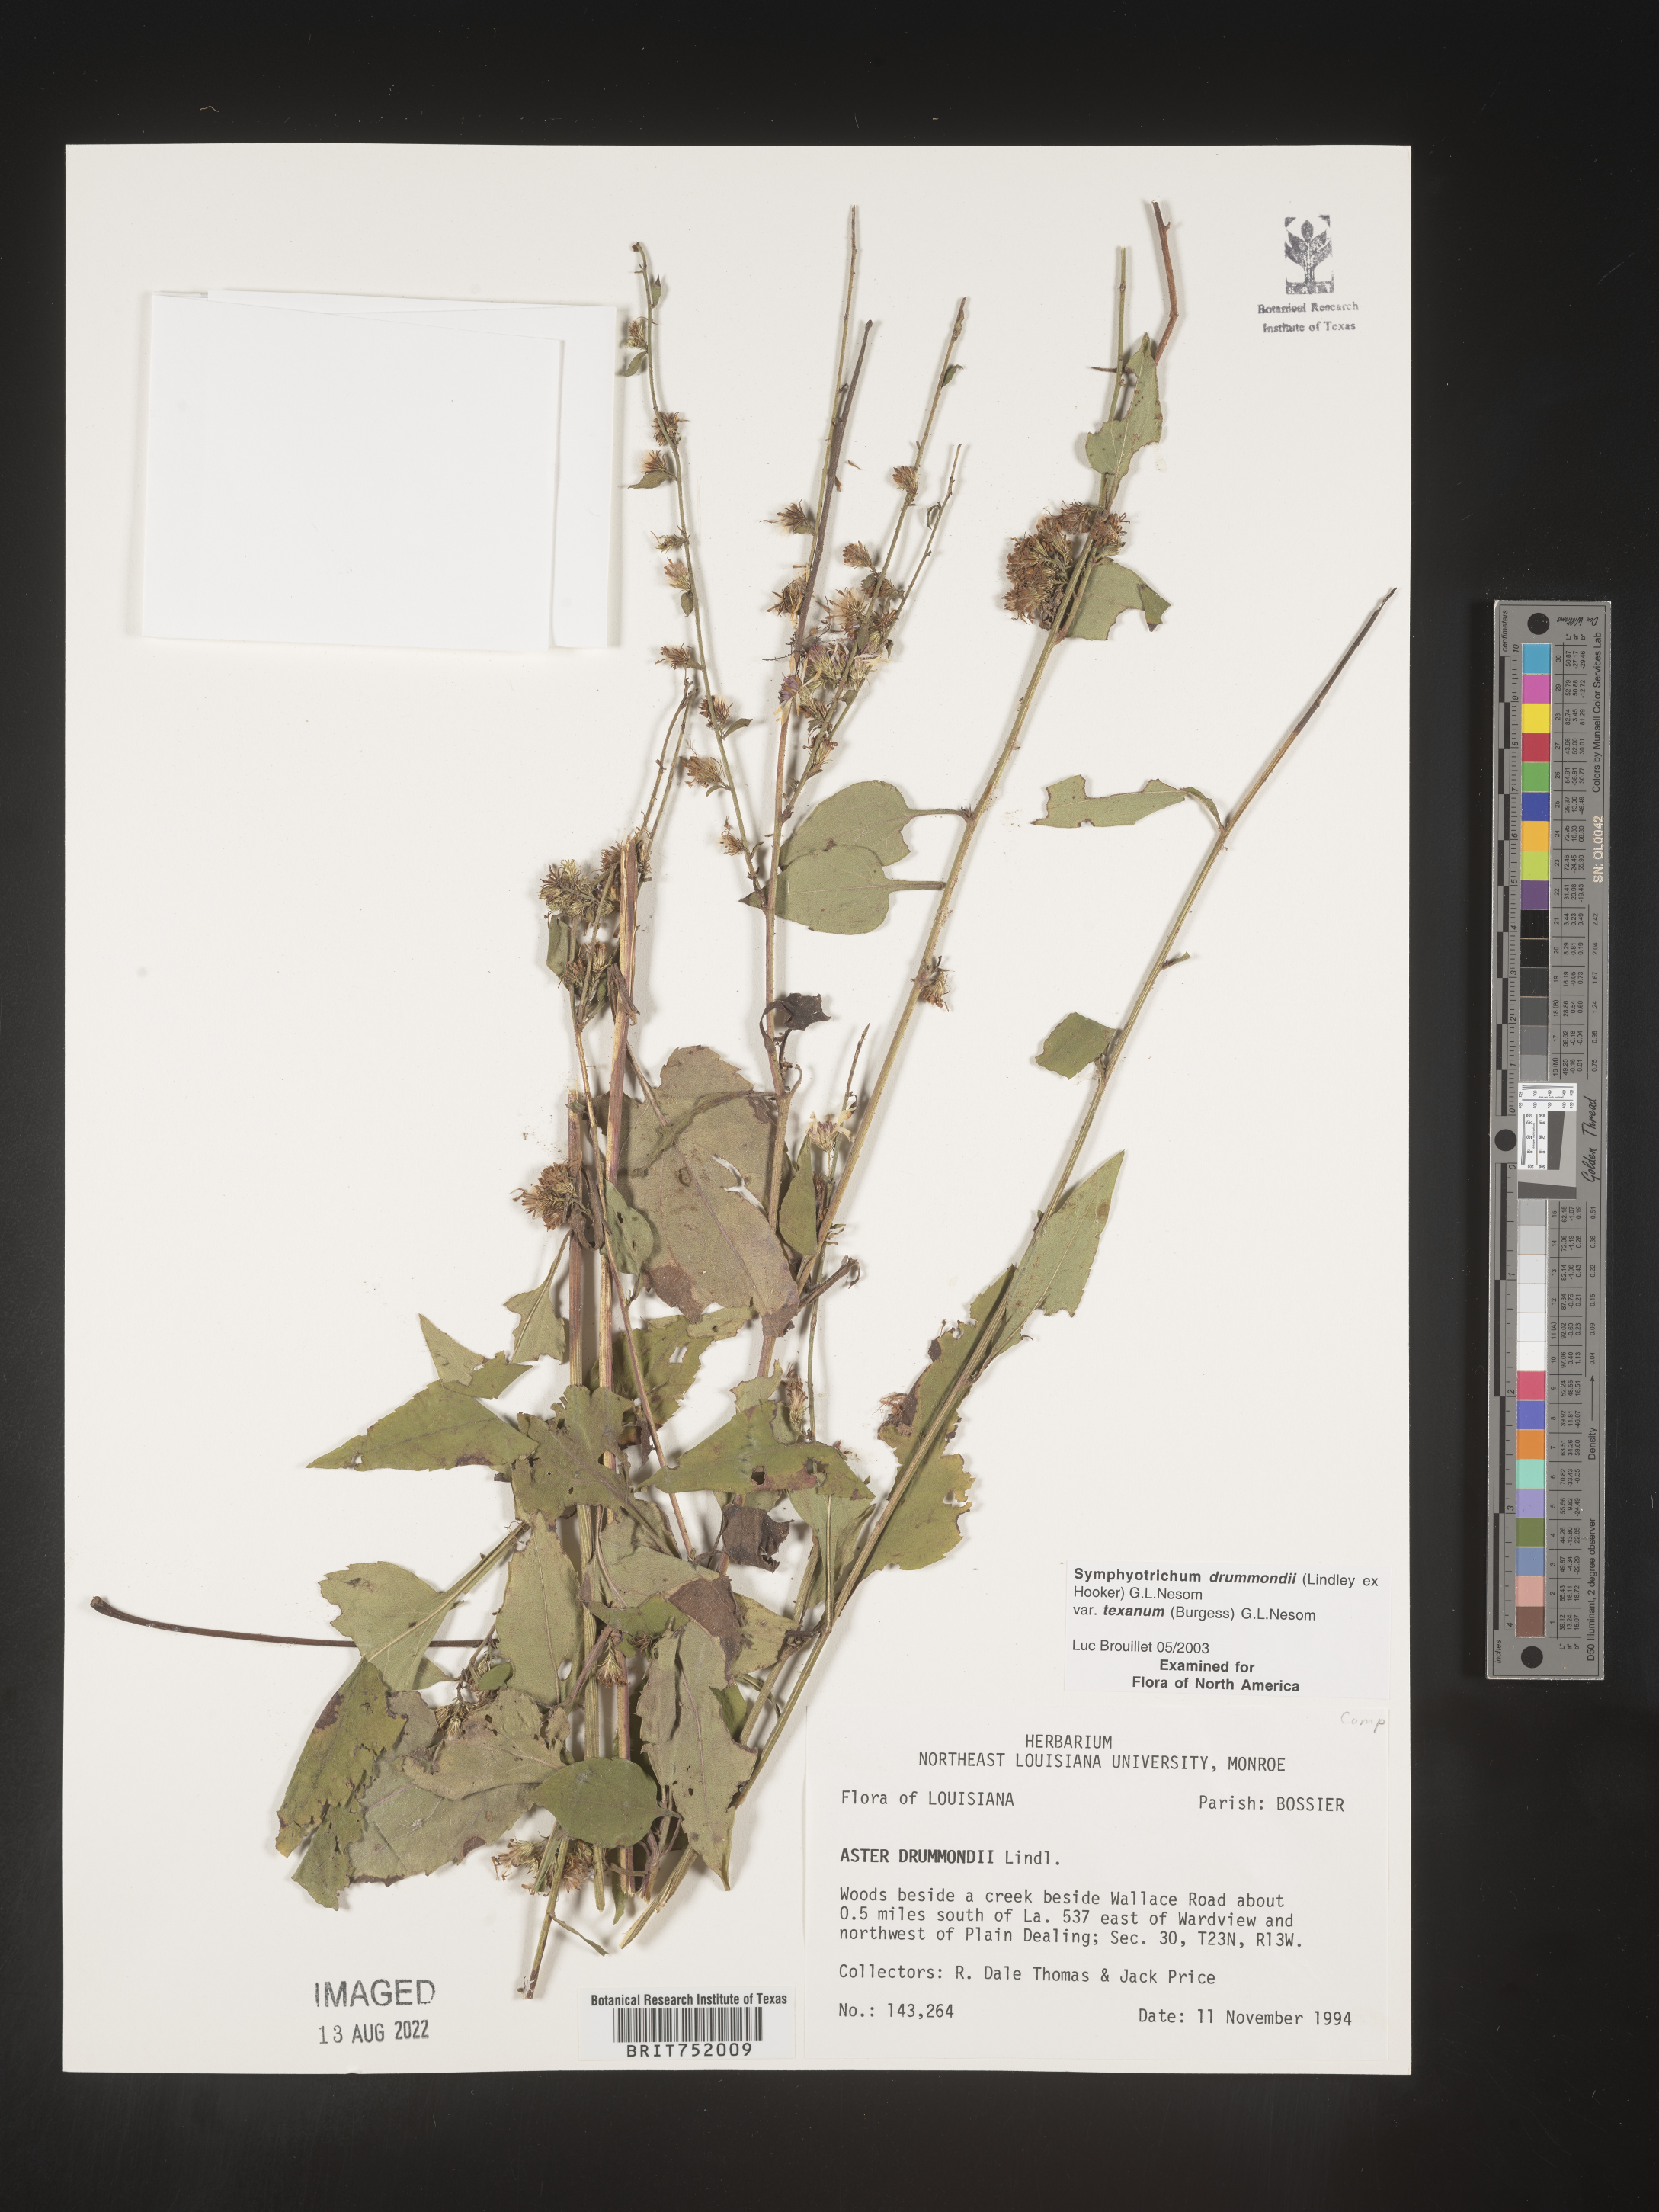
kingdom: Plantae
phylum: Tracheophyta
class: Magnoliopsida
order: Asterales
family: Asteraceae
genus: Symphyotrichum
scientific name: Symphyotrichum drummondii
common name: Drummond's aster
